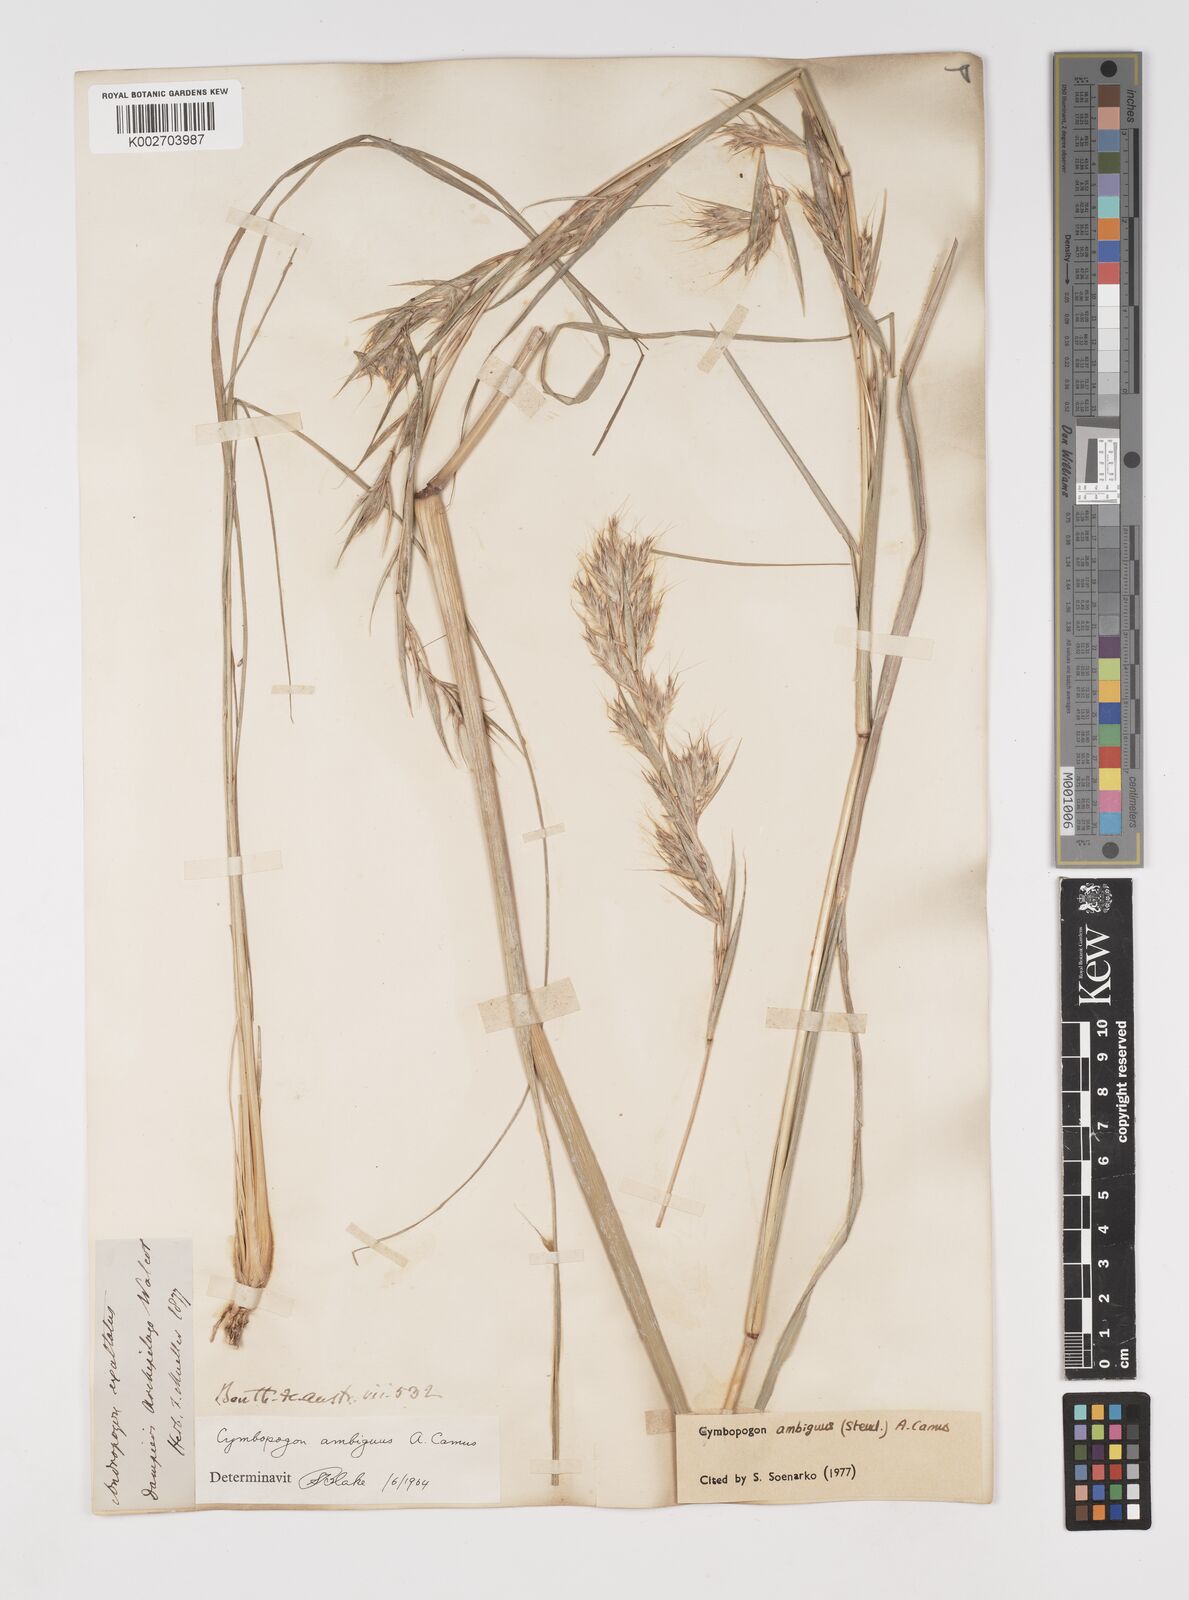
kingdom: Plantae
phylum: Tracheophyta
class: Liliopsida
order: Poales
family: Poaceae
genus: Cymbopogon
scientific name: Cymbopogon ambiguus
